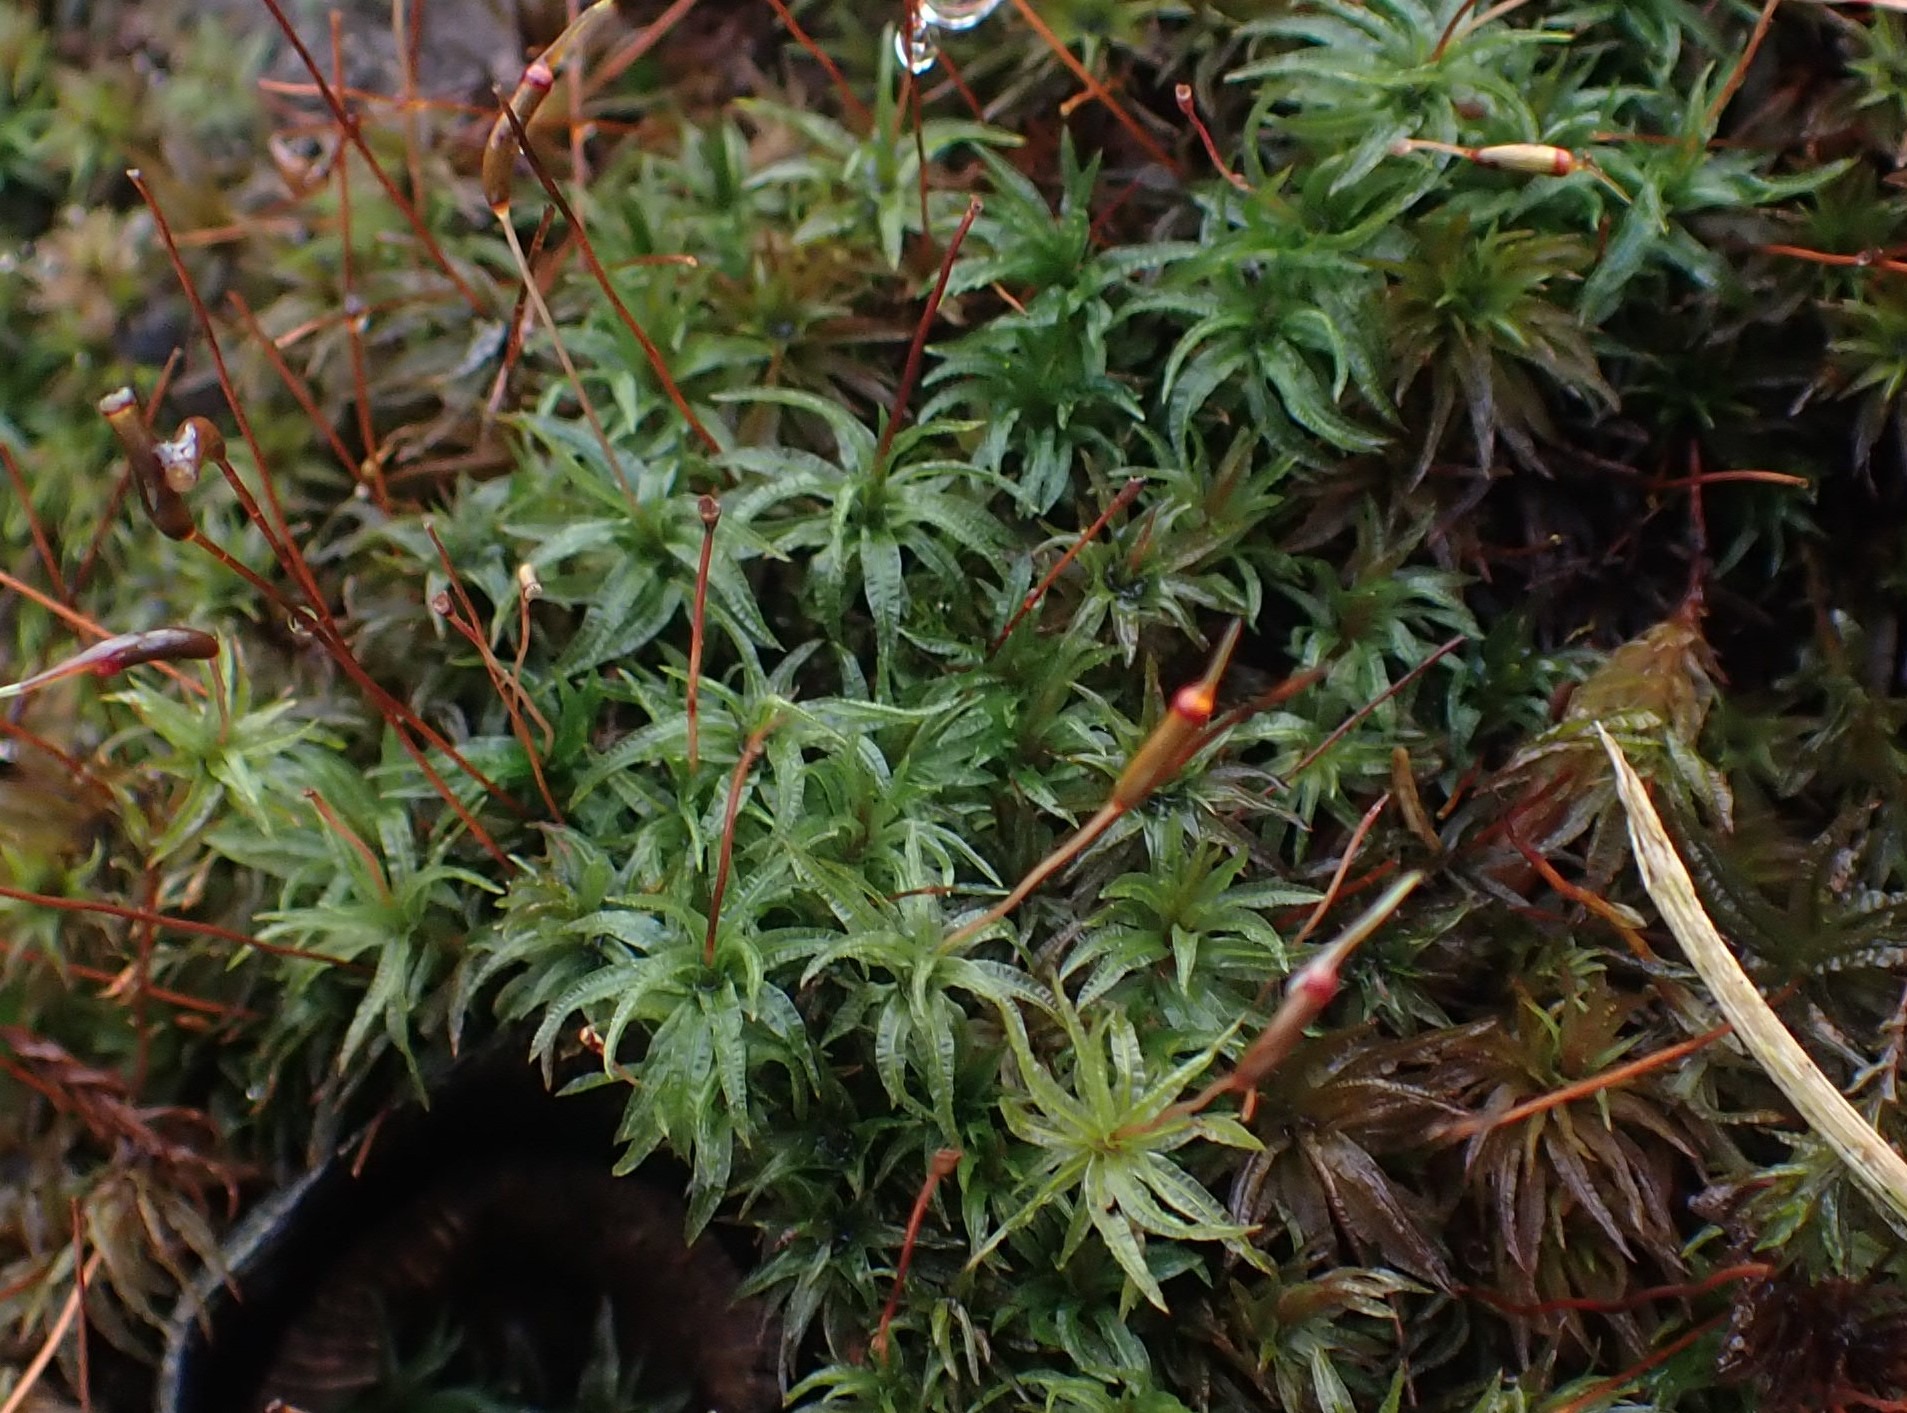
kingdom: Plantae
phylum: Bryophyta
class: Polytrichopsida
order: Polytrichales
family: Polytrichaceae
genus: Atrichum
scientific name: Atrichum undulatum
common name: Bølget katrinemos
